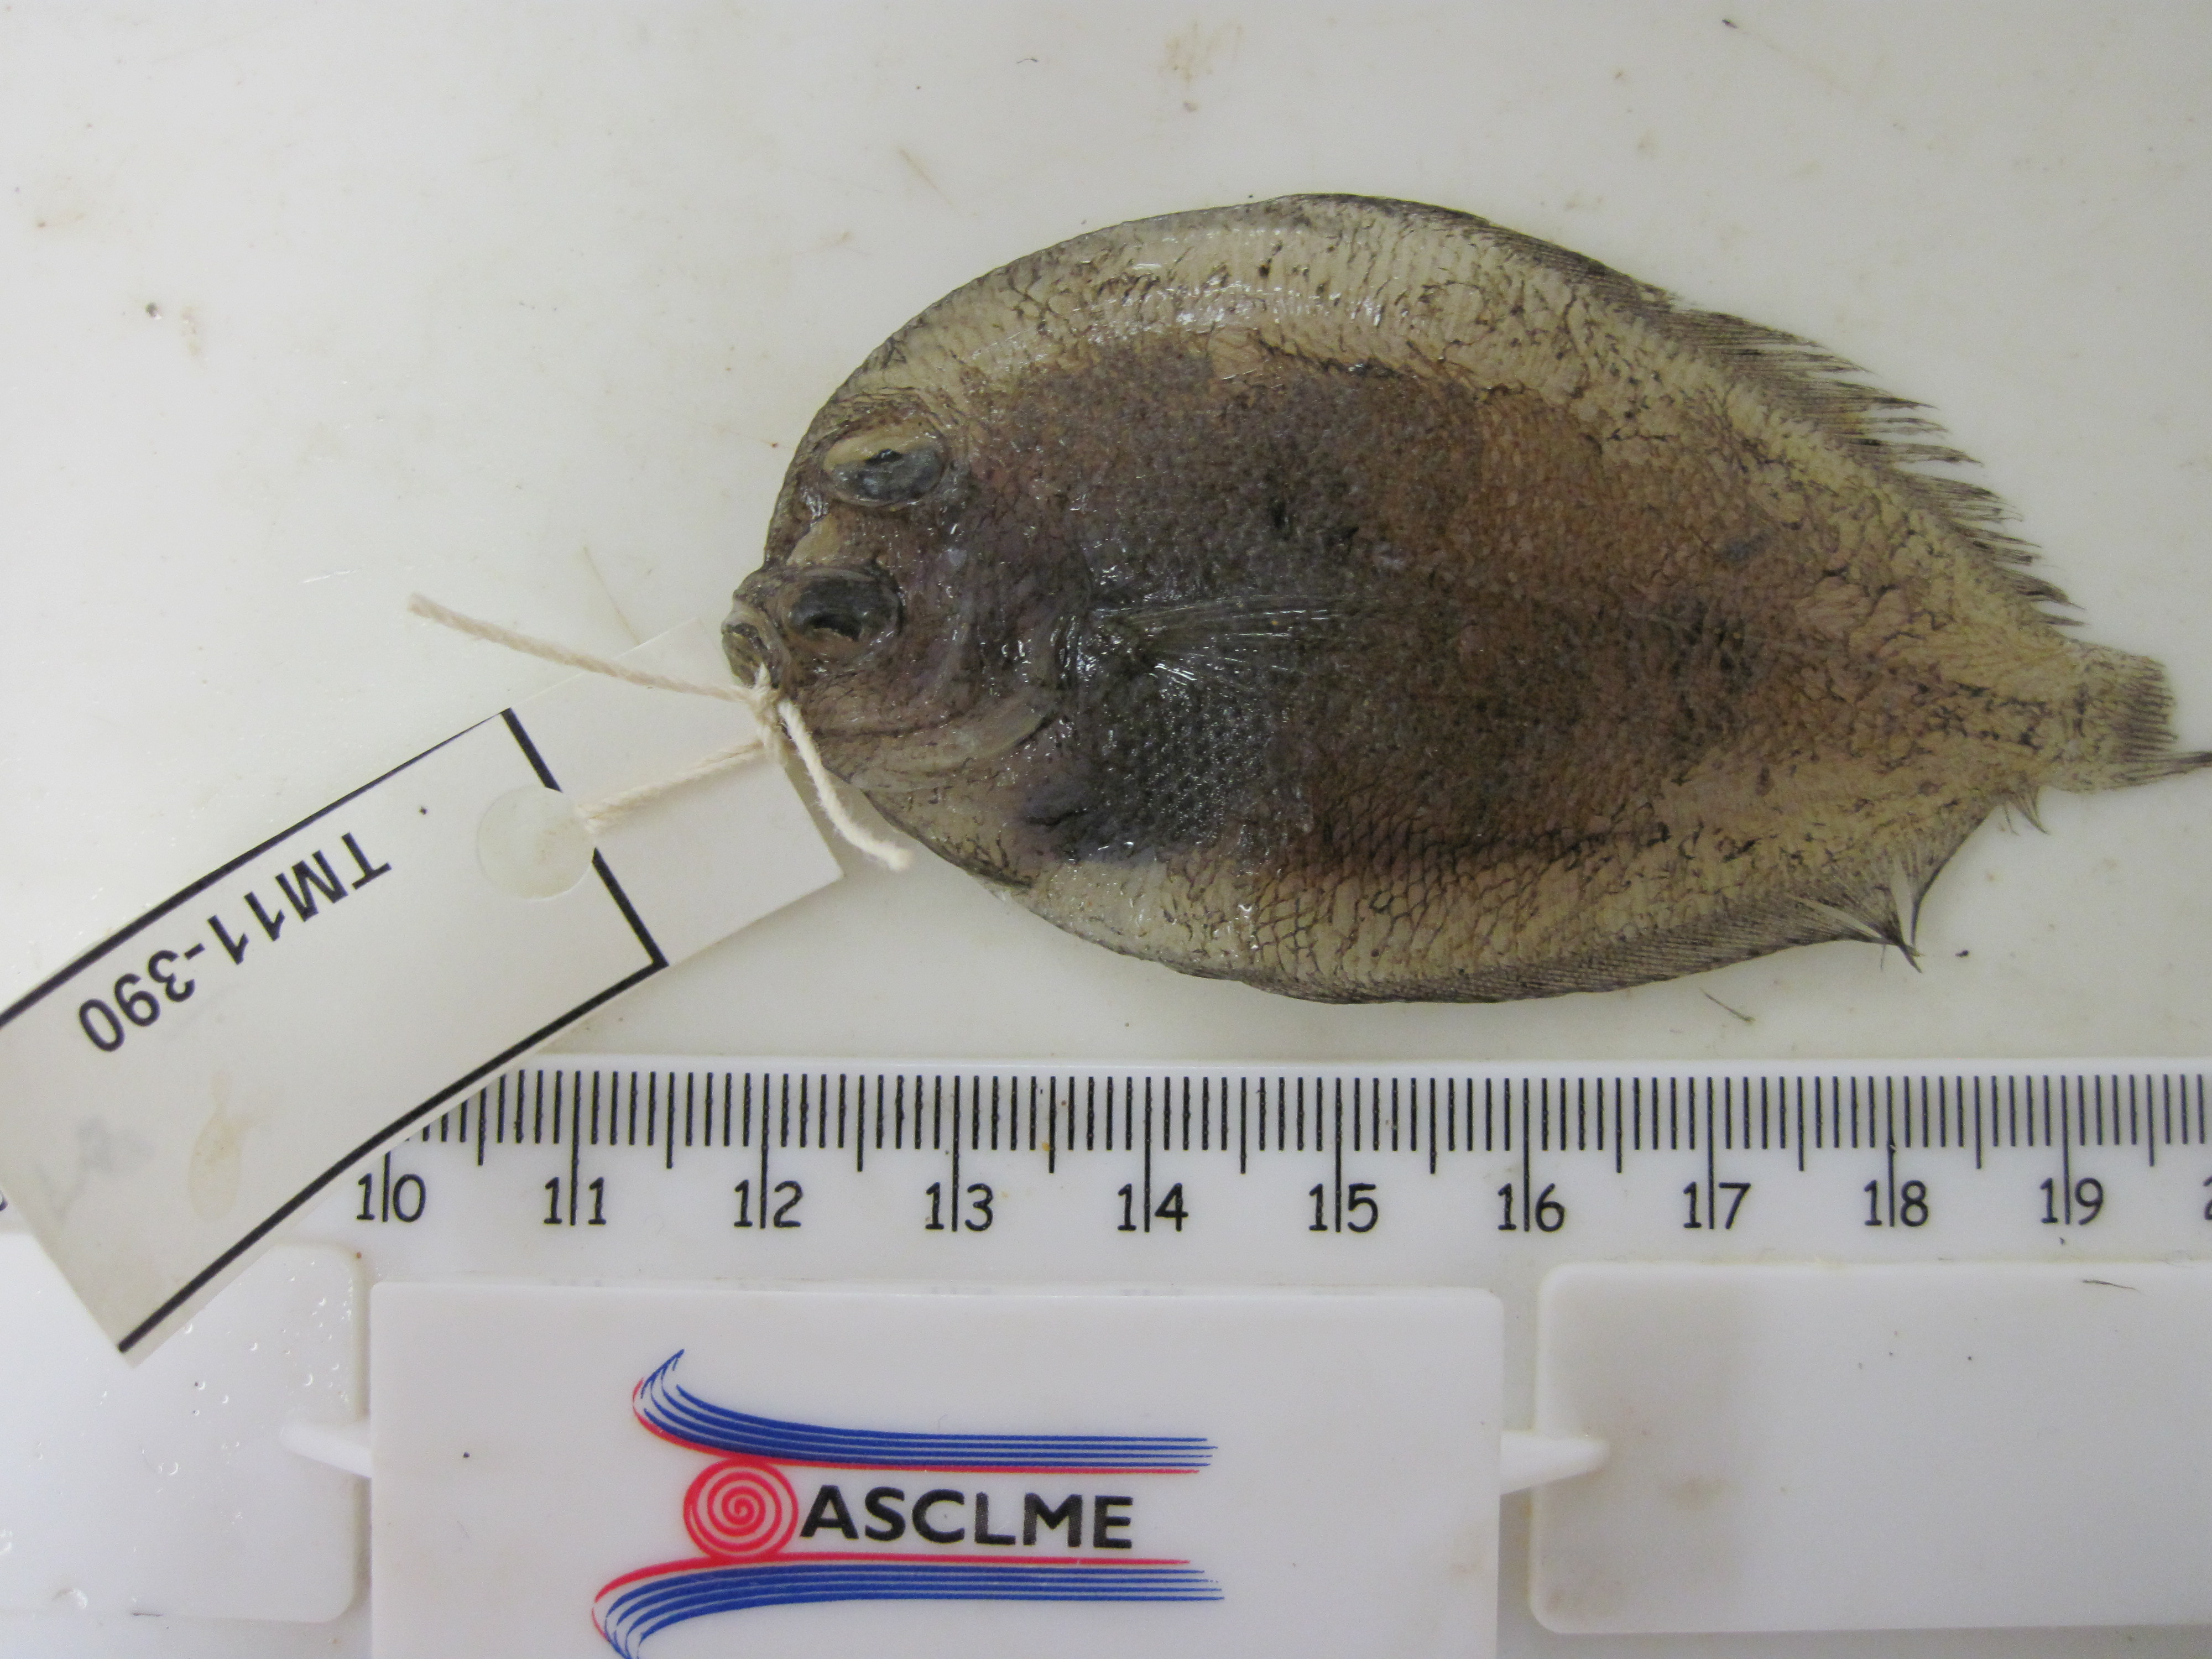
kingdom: Animalia
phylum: Chordata
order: Pleuronectiformes
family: Bothidae
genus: Crossorhombus
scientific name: Crossorhombus valderostratus
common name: Broadbrow flounder
